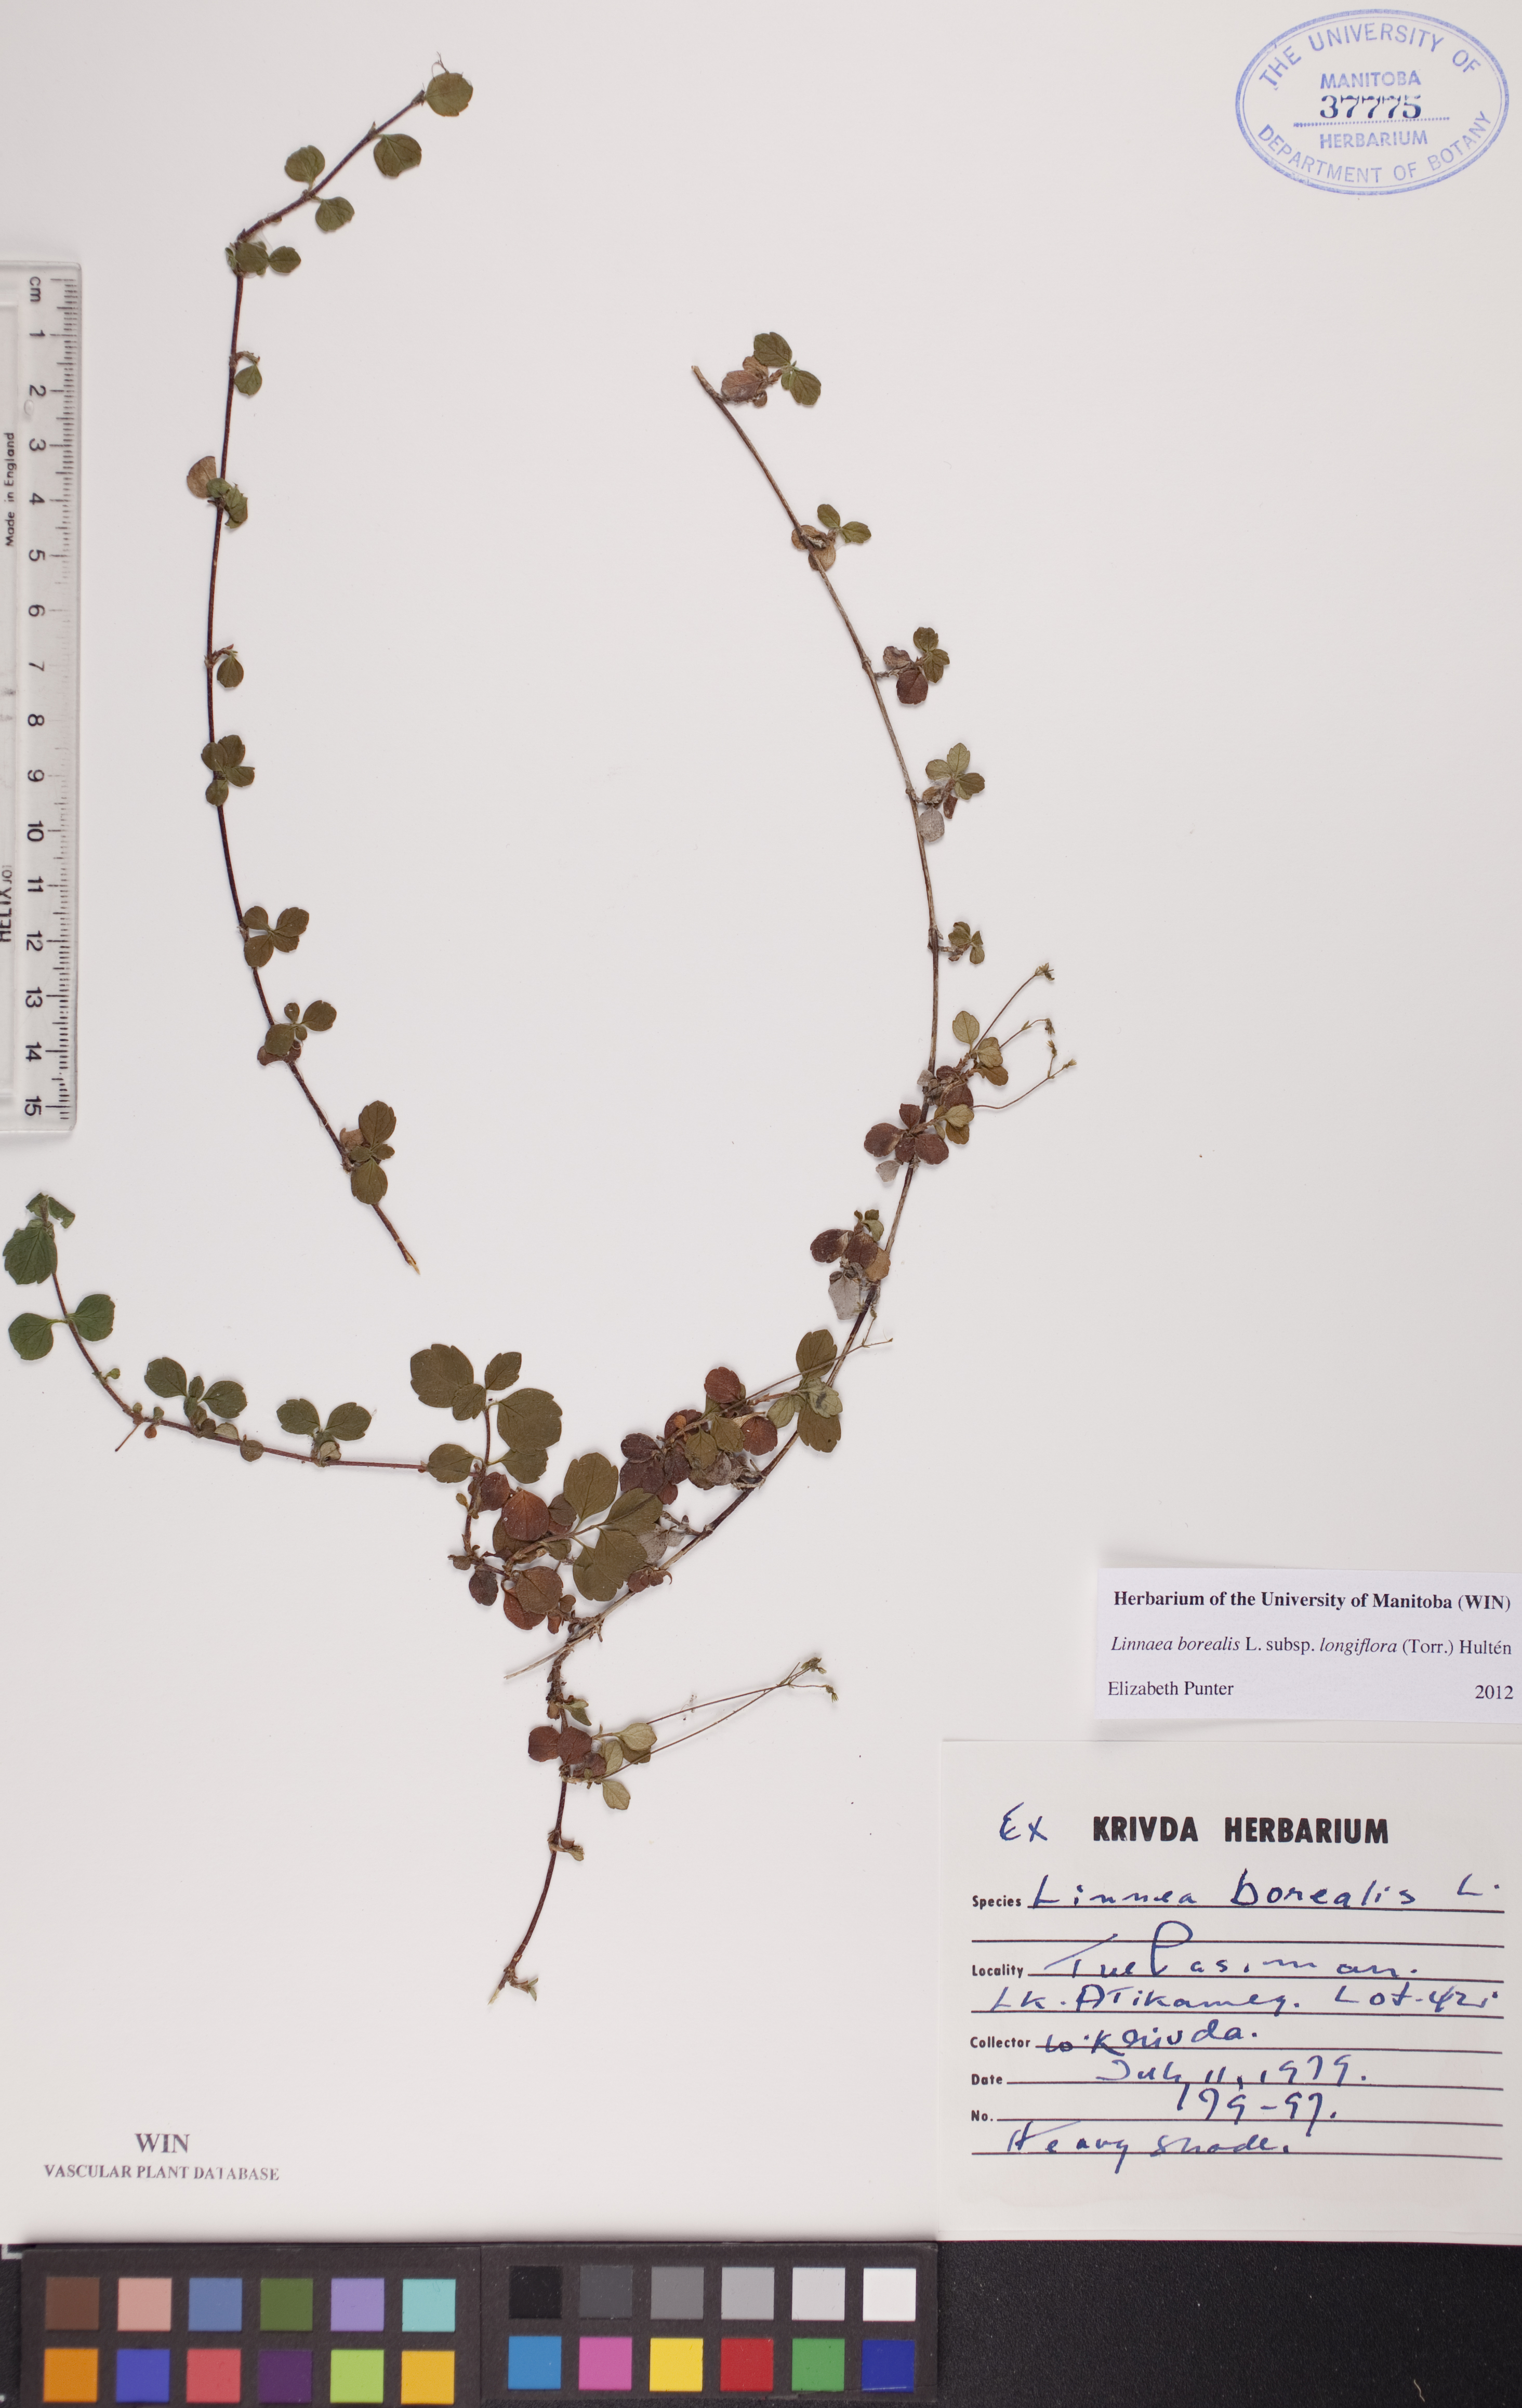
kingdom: Plantae
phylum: Tracheophyta
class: Magnoliopsida
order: Dipsacales
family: Caprifoliaceae
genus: Linnaea
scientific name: Linnaea borealis
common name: Twinflower
